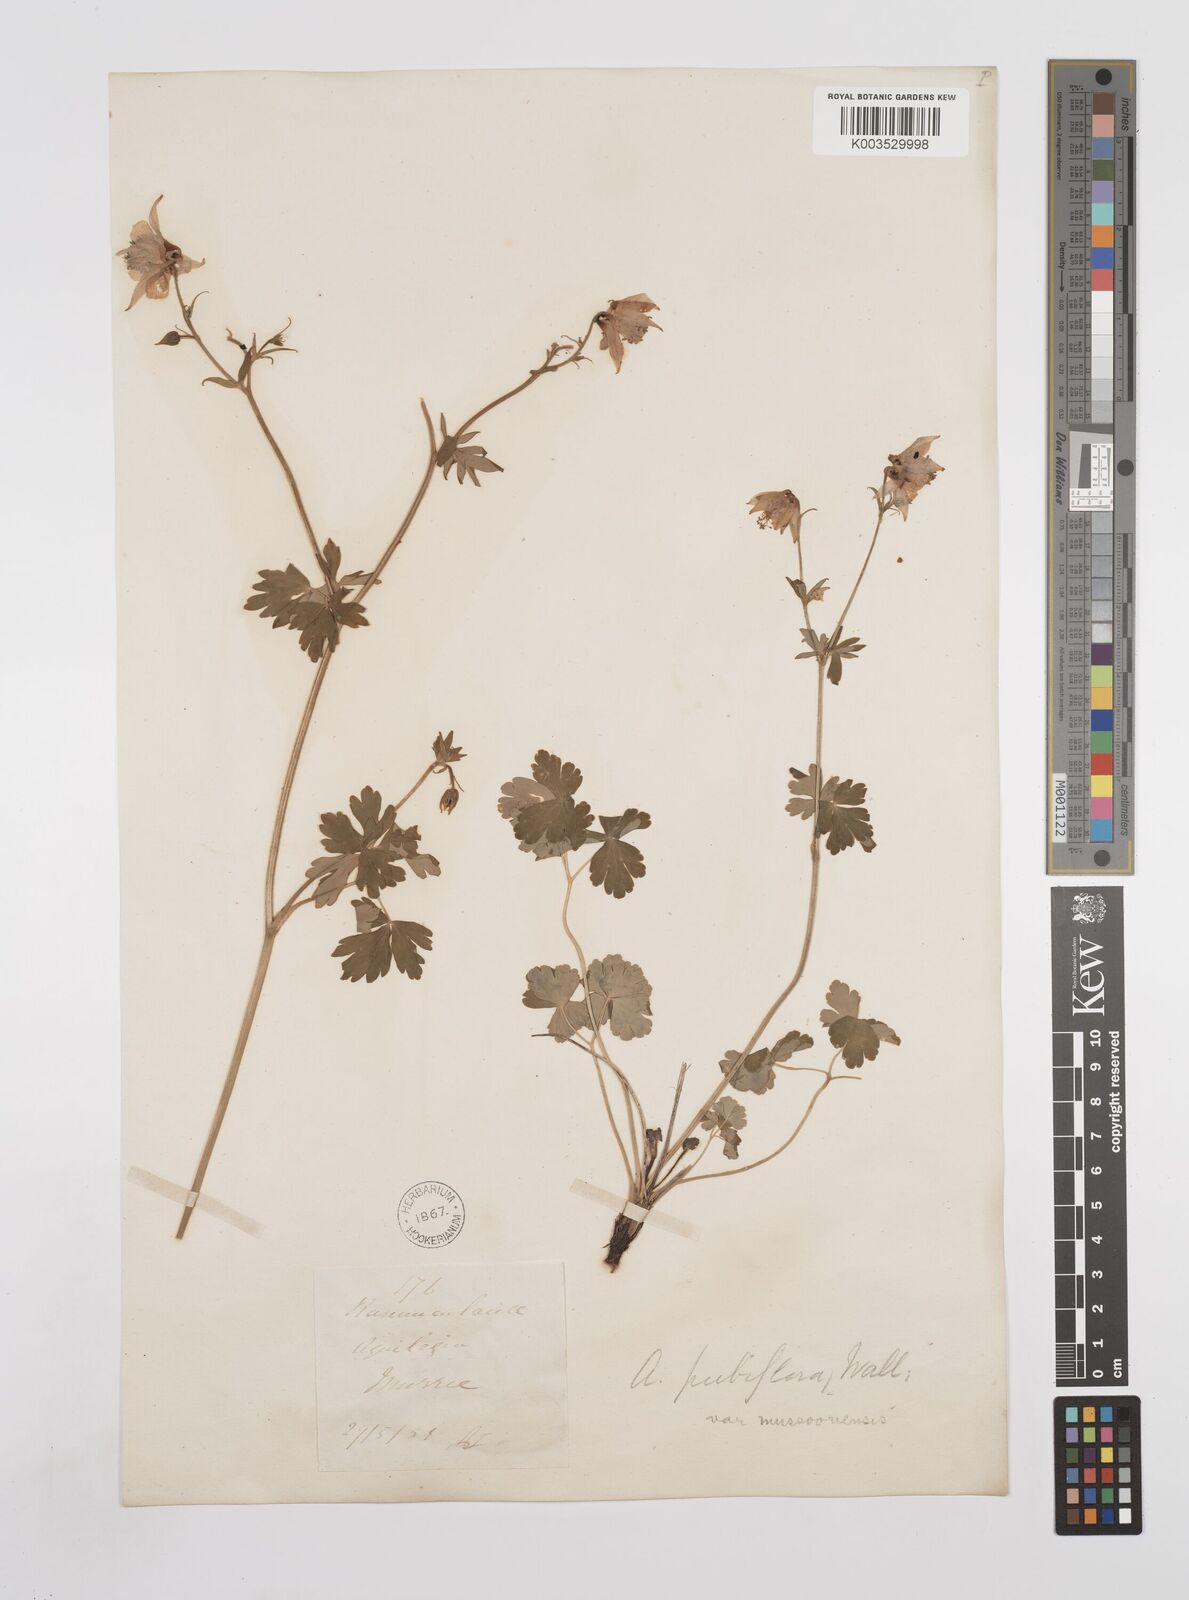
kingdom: Plantae
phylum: Tracheophyta
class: Magnoliopsida
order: Ranunculales
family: Ranunculaceae
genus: Aquilegia
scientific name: Aquilegia pubiflora
